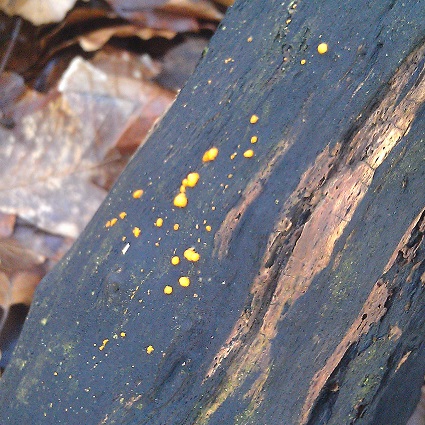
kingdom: Fungi
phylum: Basidiomycota
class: Dacrymycetes
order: Dacrymycetales
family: Dacrymycetaceae
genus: Dacrymyces
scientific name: Dacrymyces stillatus
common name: almindelig tåresvamp
